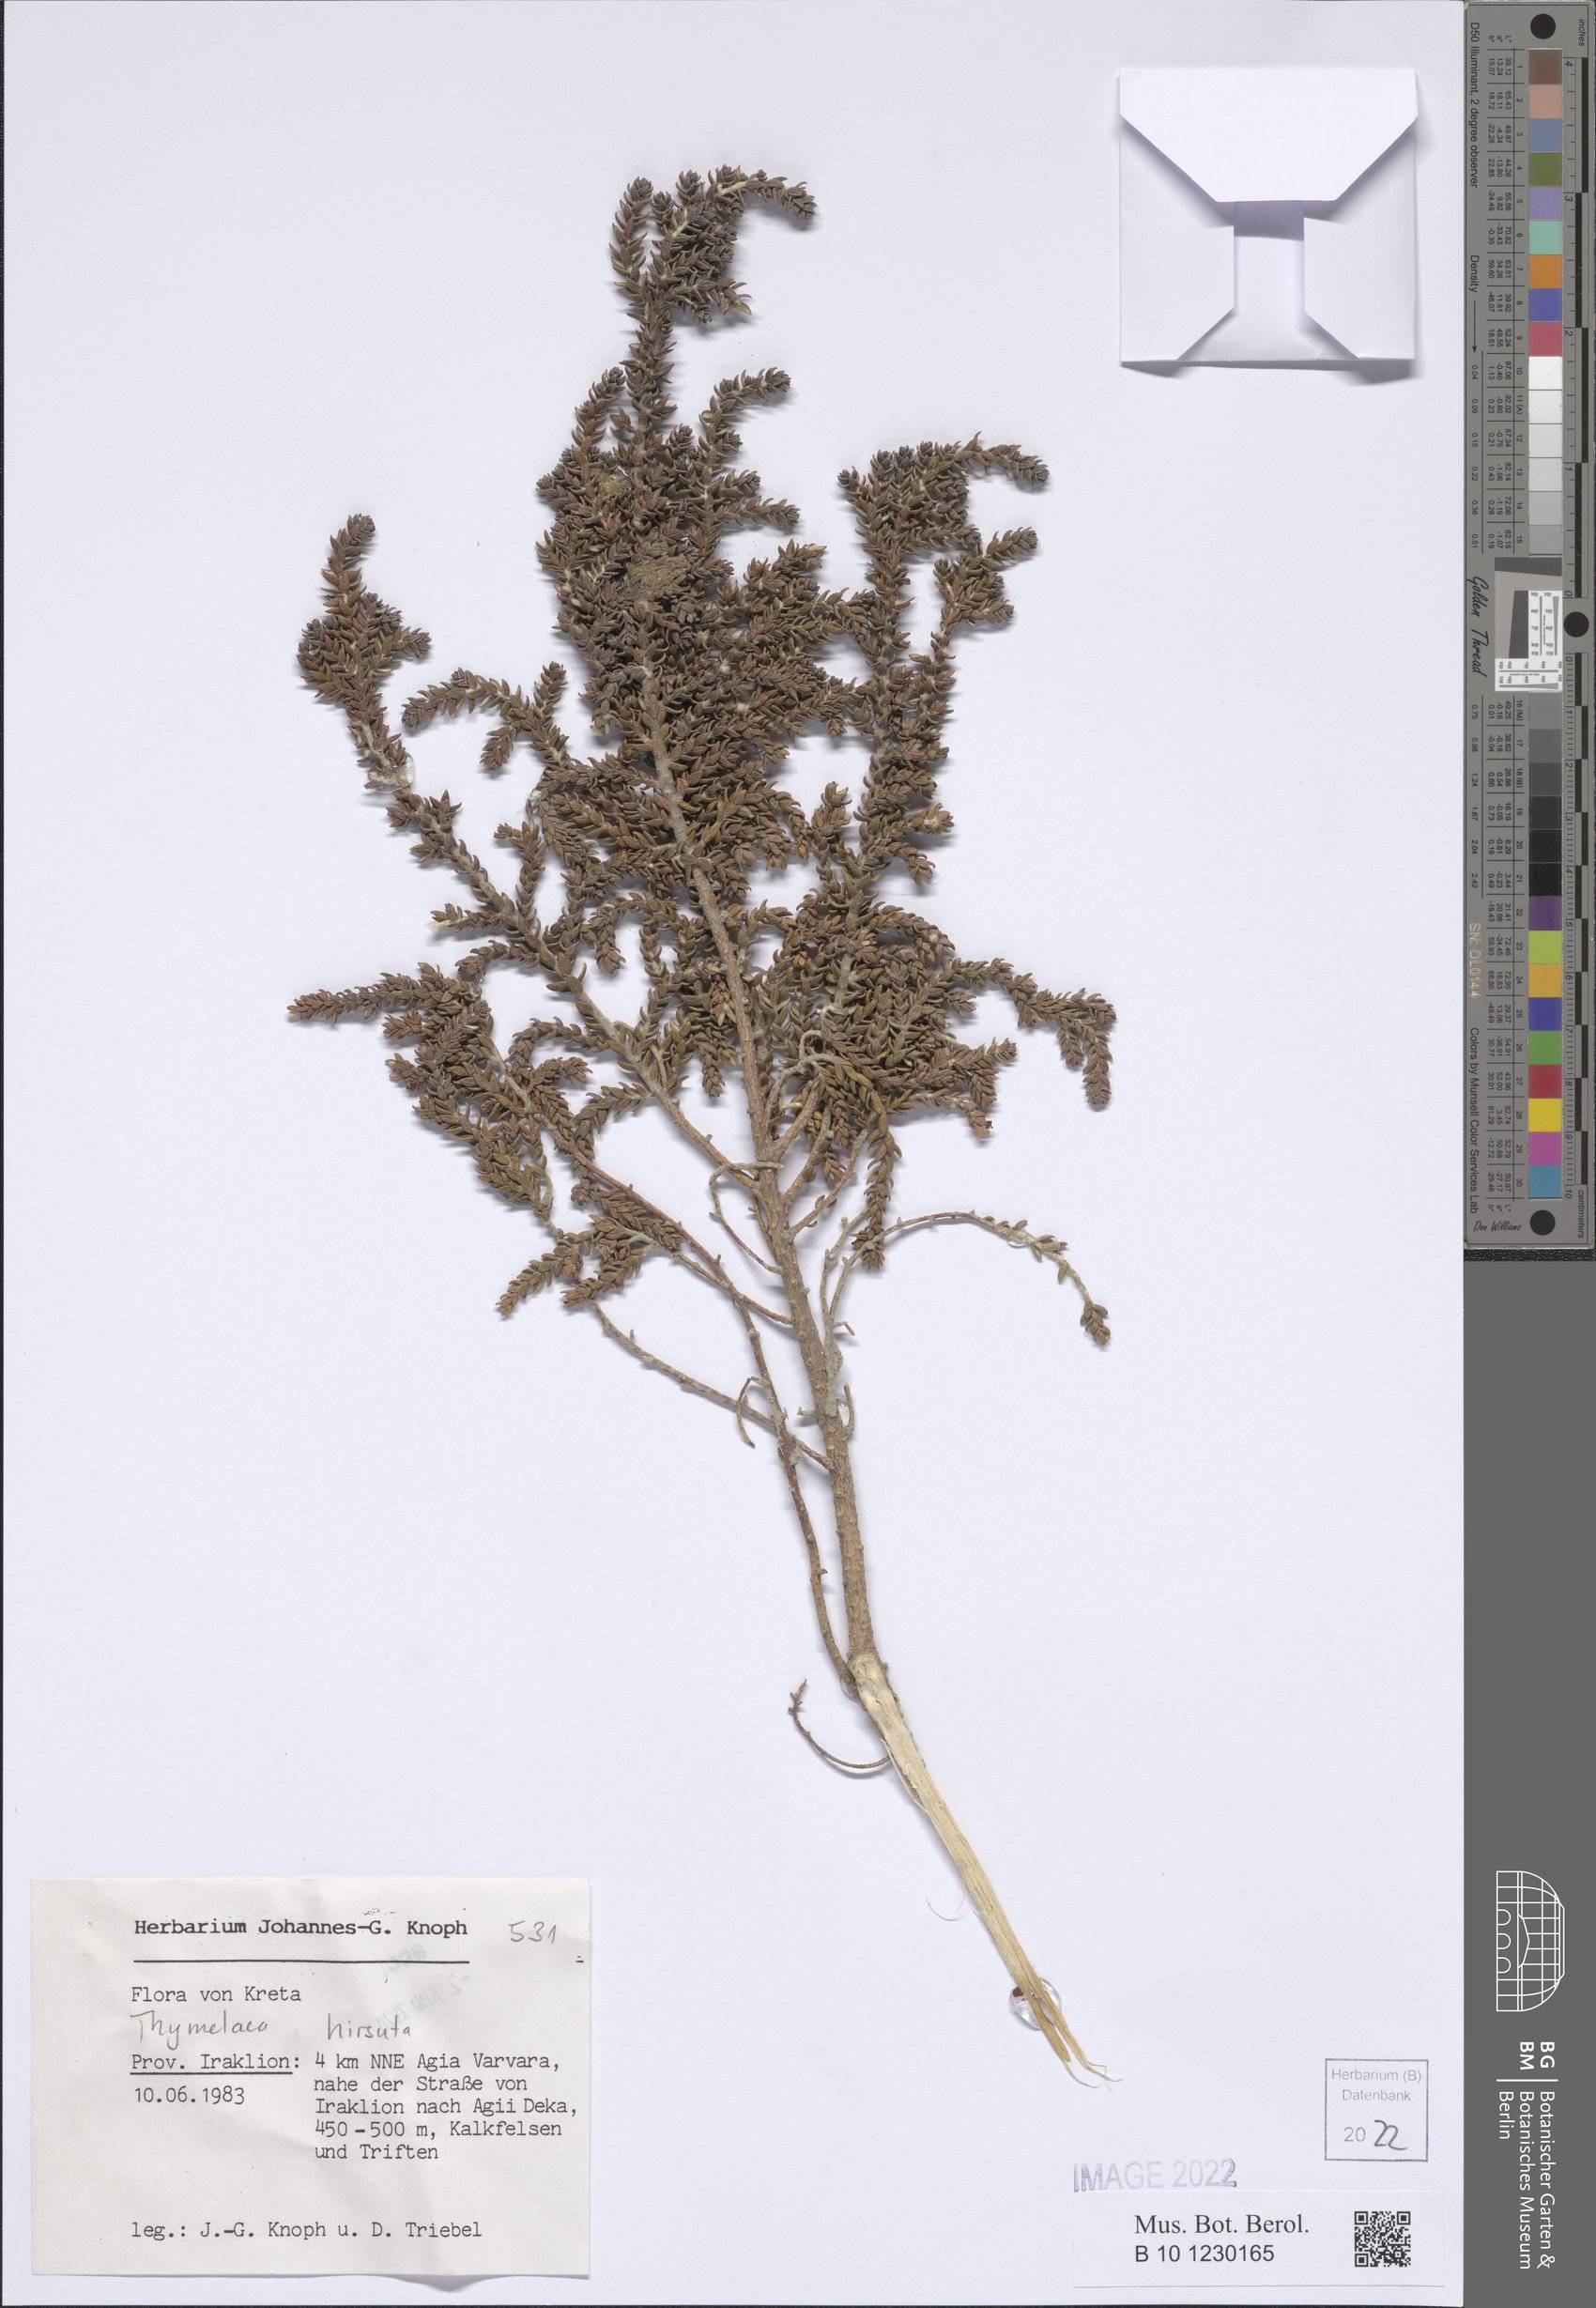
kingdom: Plantae
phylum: Tracheophyta
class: Magnoliopsida
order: Malvales
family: Thymelaeaceae
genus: Thymelaea
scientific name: Thymelaea hirsuta
